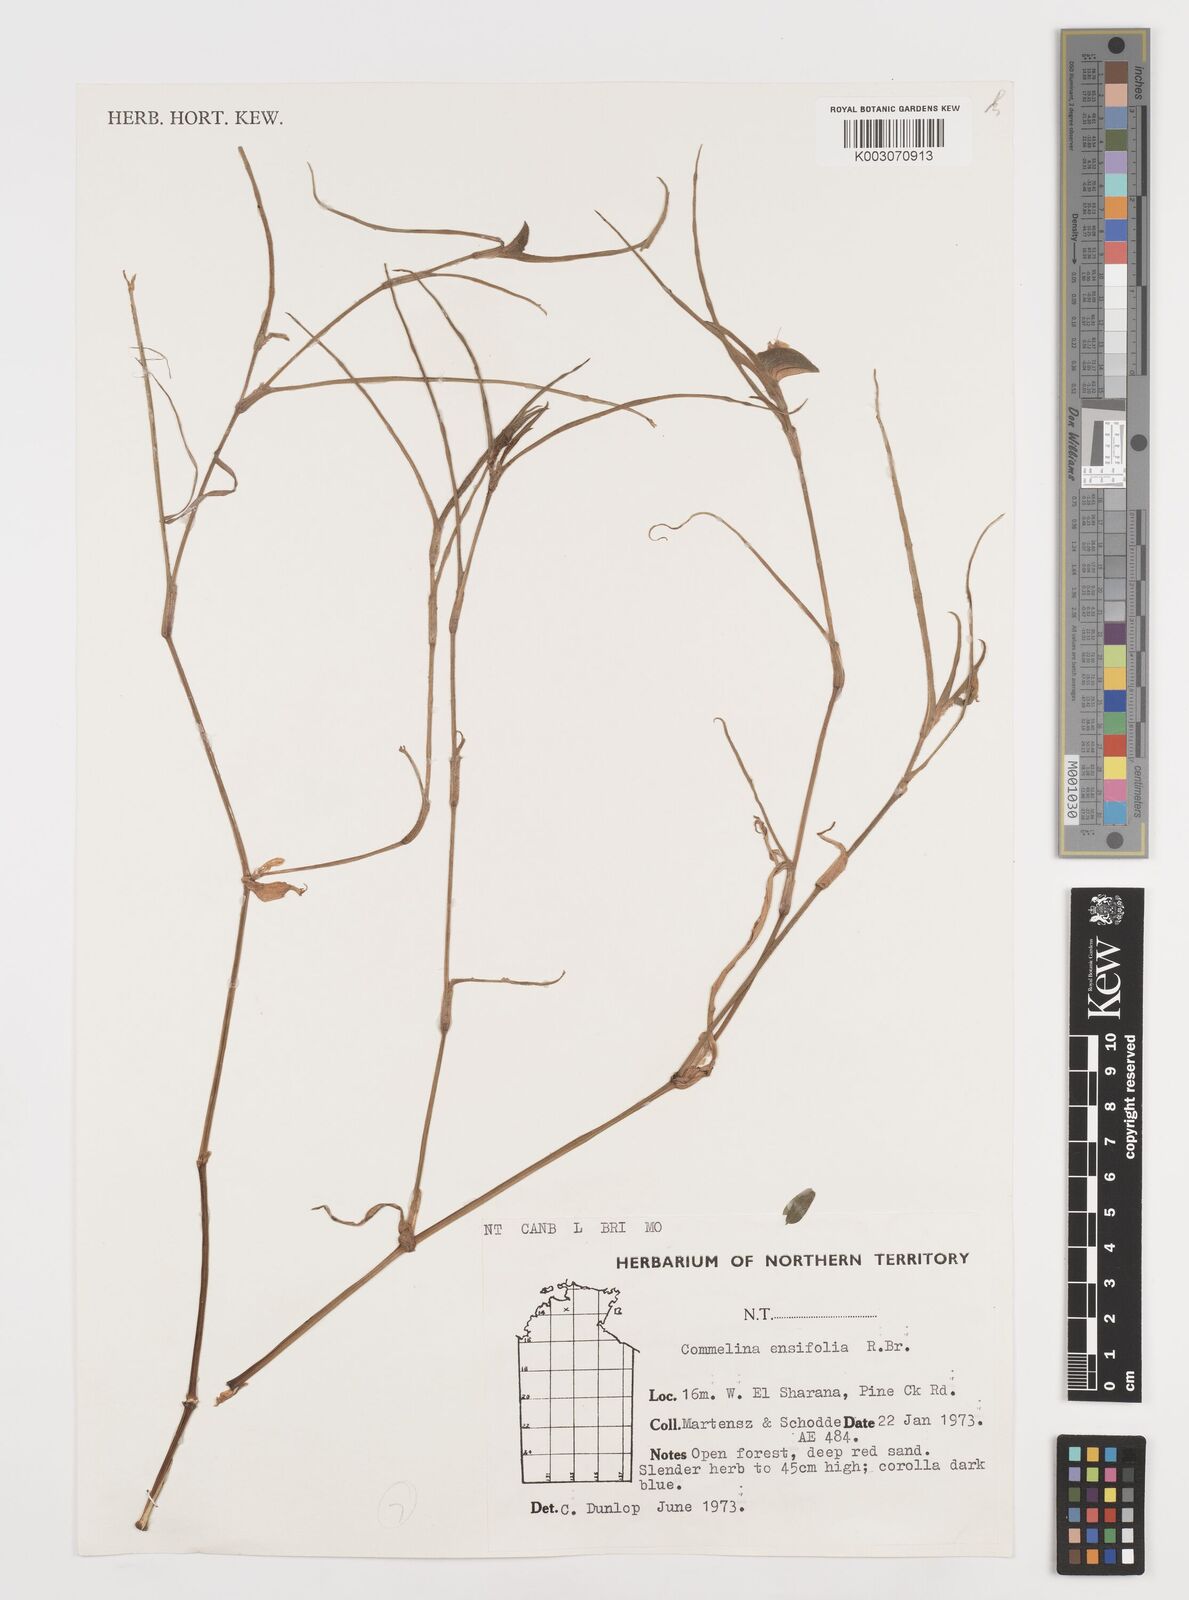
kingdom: Plantae
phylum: Tracheophyta
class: Liliopsida
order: Commelinales
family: Commelinaceae
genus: Commelina
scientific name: Commelina ensifolia
